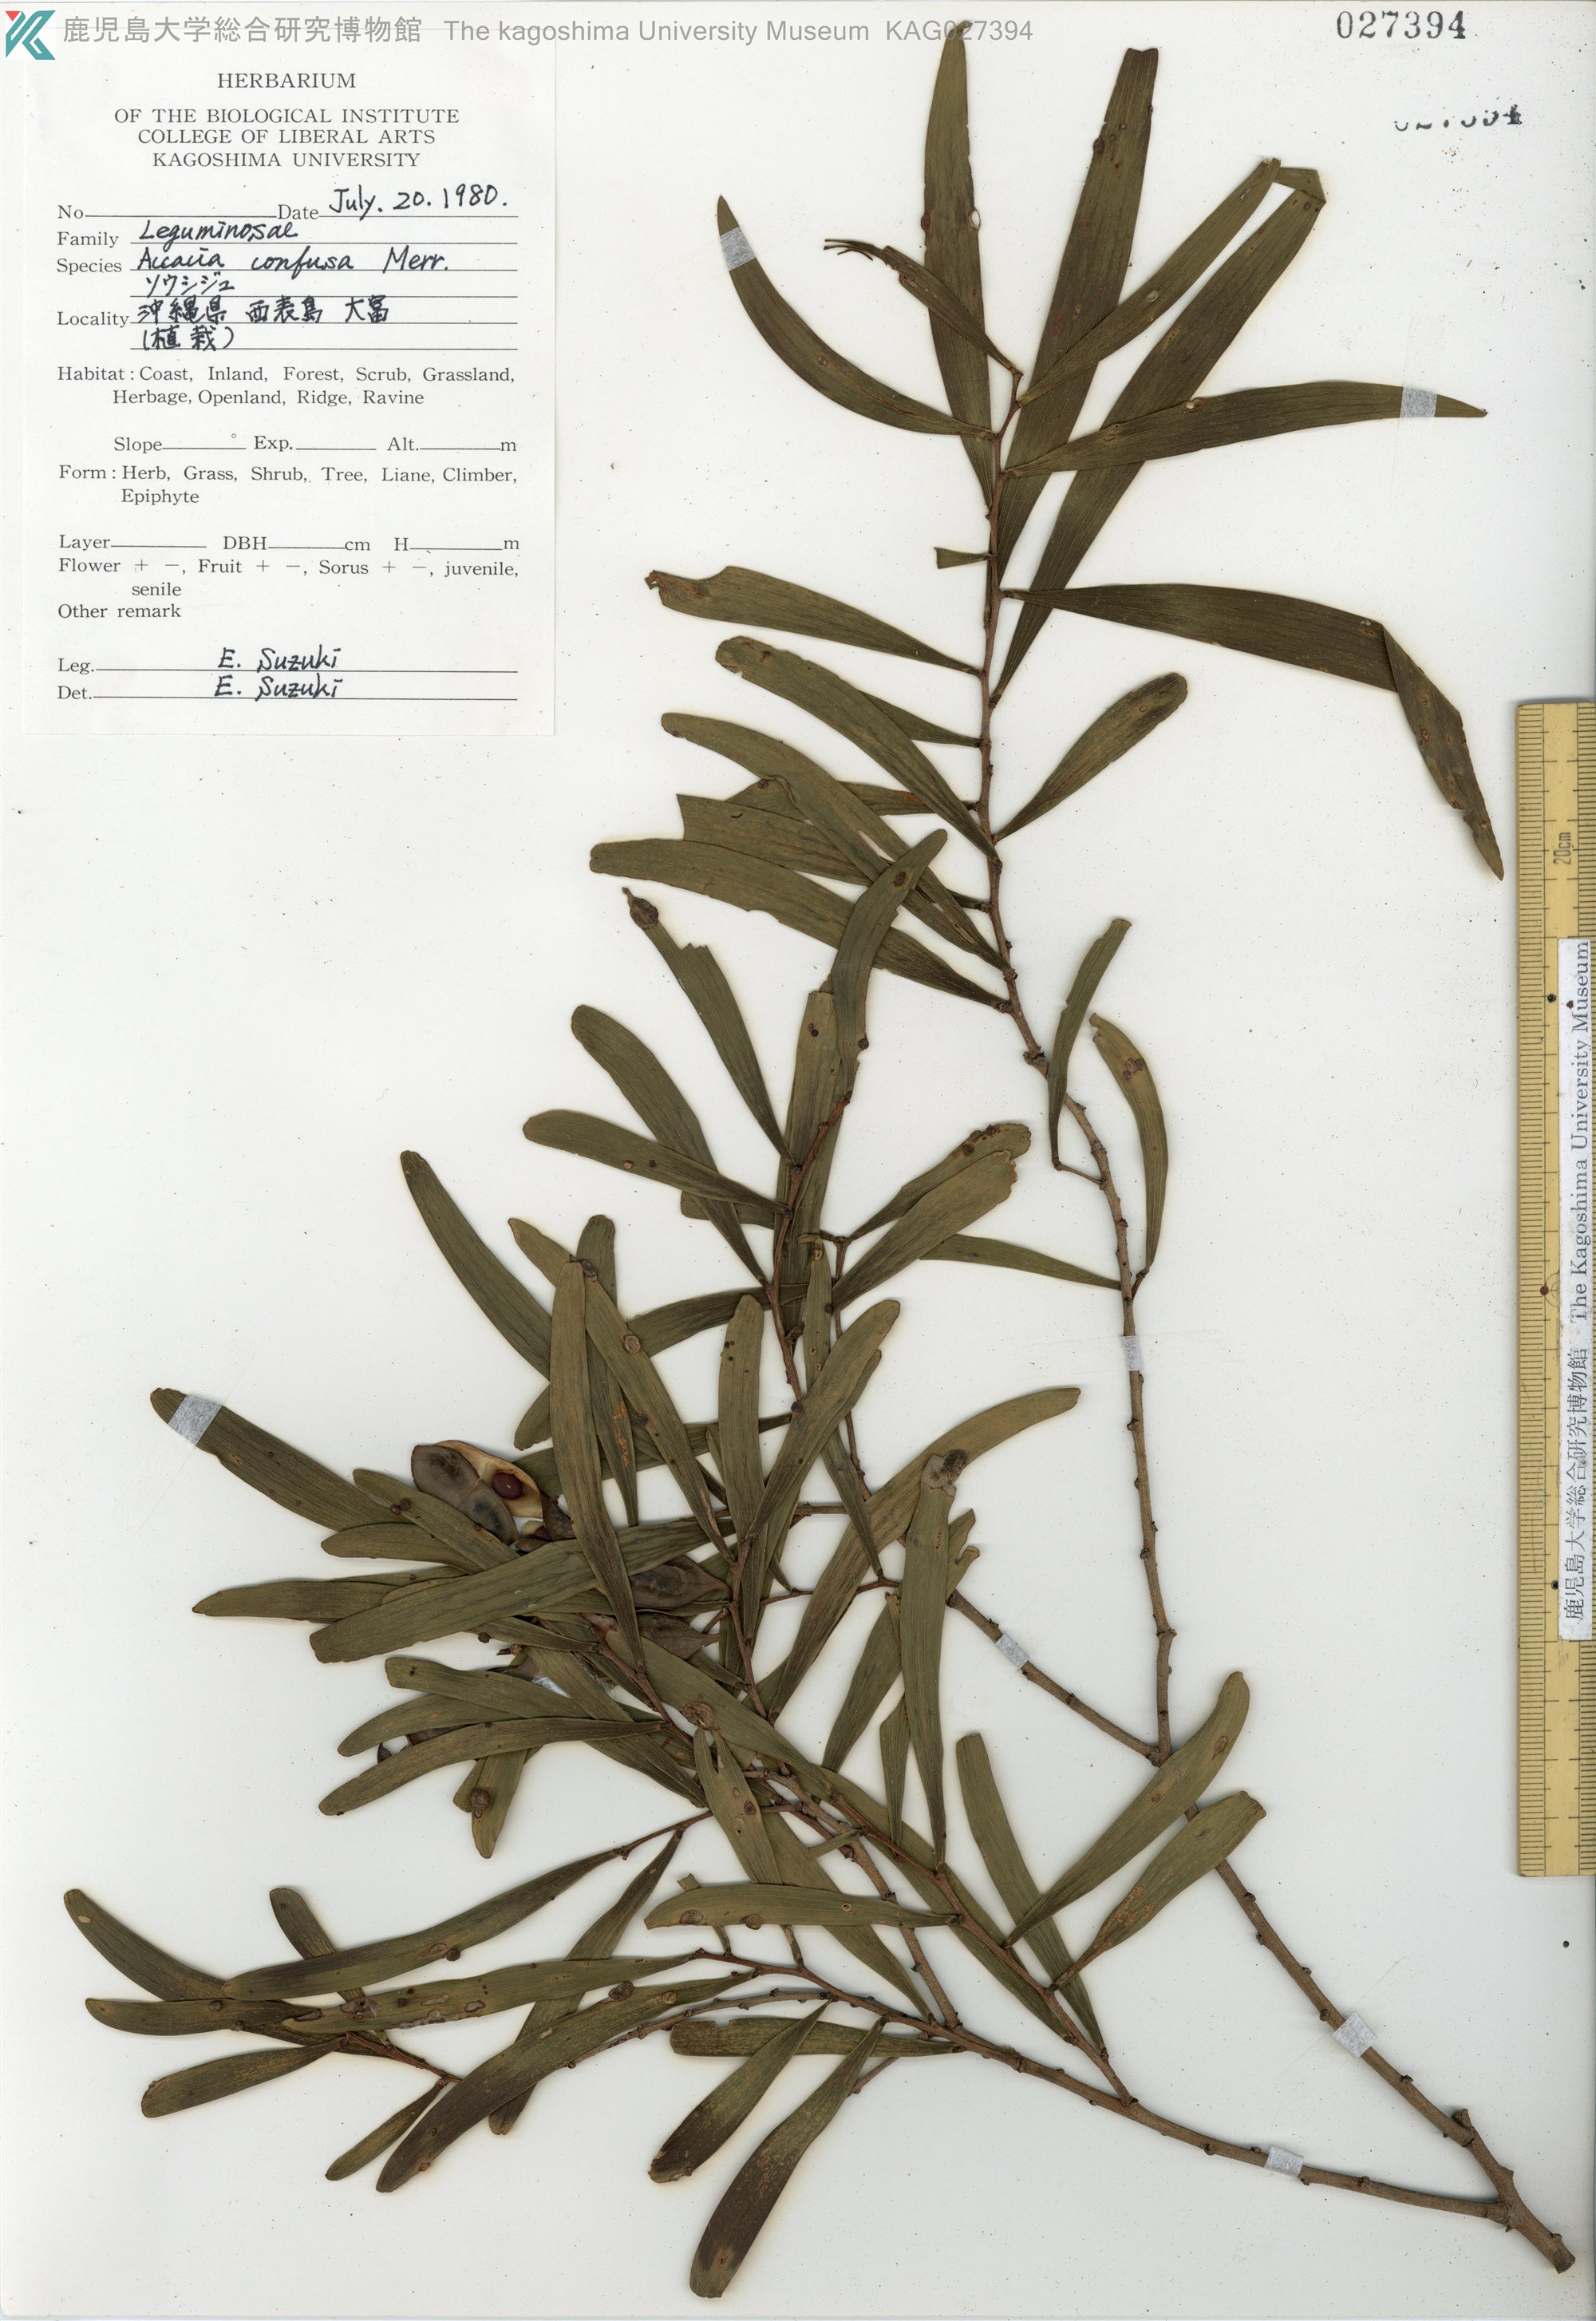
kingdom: Plantae
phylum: Tracheophyta
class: Magnoliopsida
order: Fabales
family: Fabaceae
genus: Acacia
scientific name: Acacia confusa
